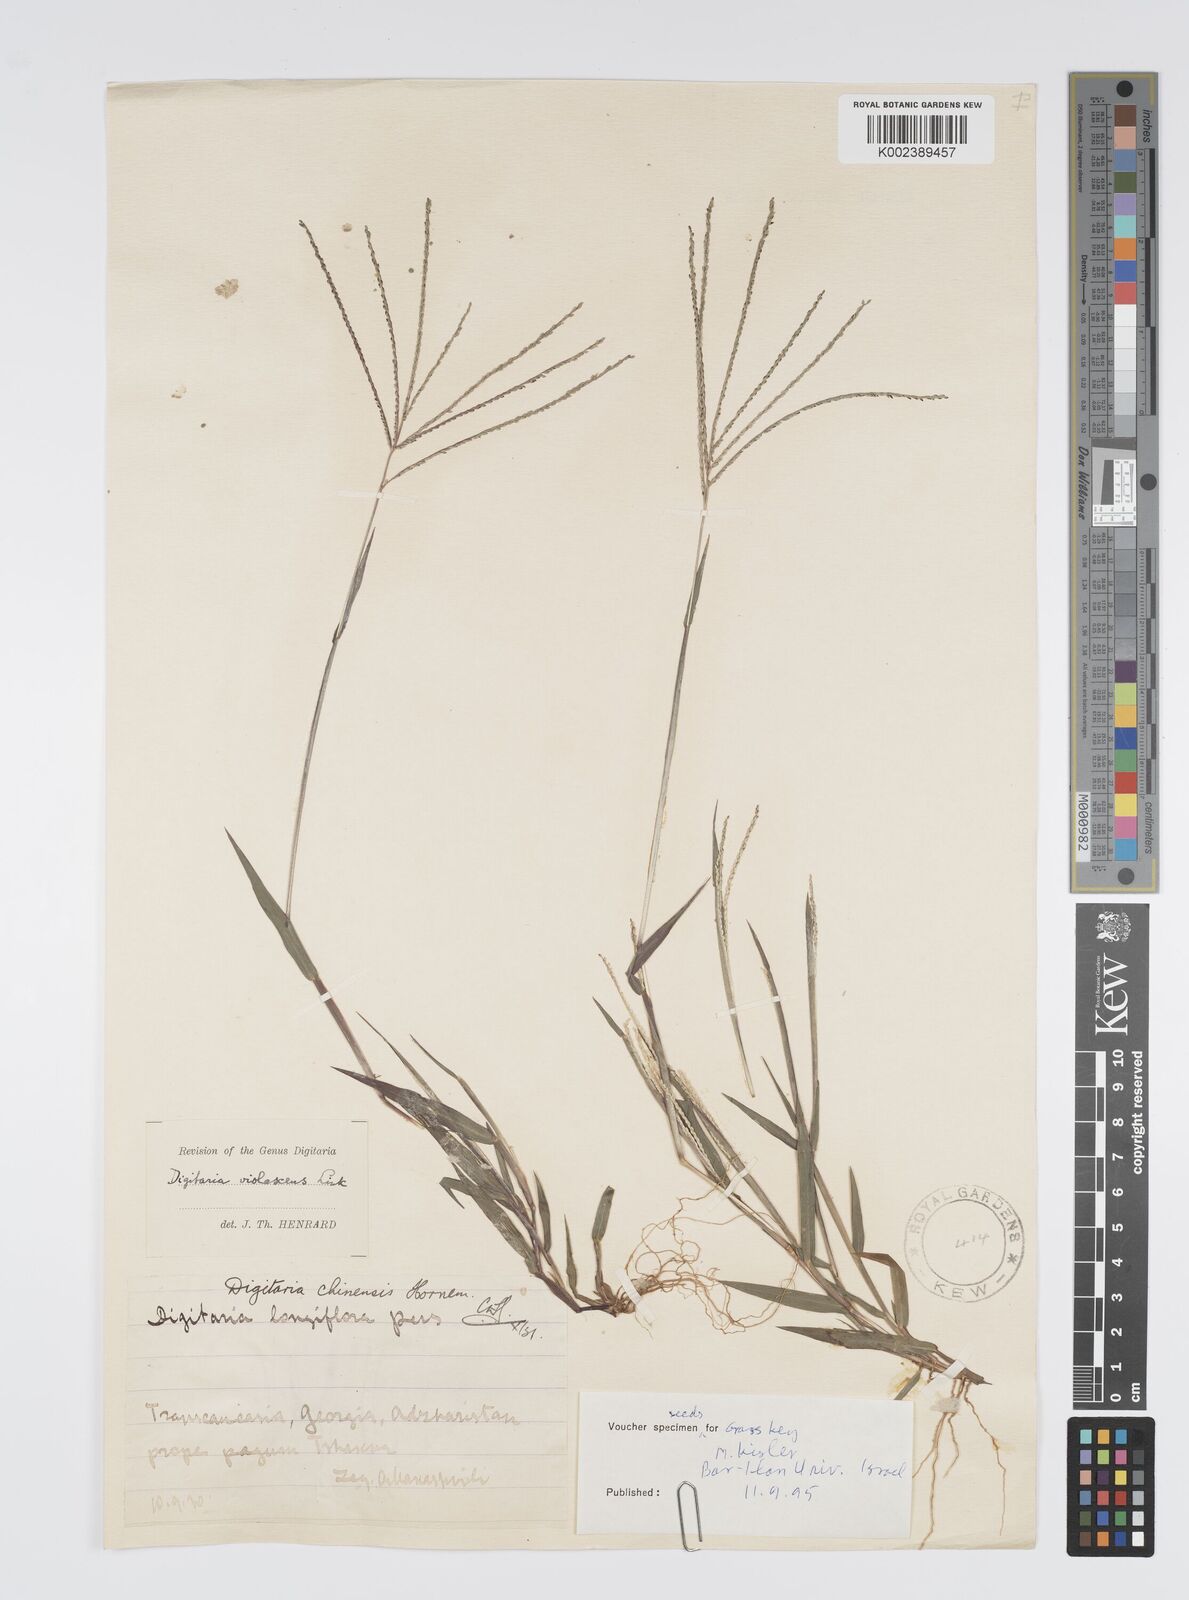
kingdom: Plantae
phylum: Tracheophyta
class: Liliopsida
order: Poales
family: Poaceae
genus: Digitaria
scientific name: Digitaria violascens
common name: Violet crabgrass
